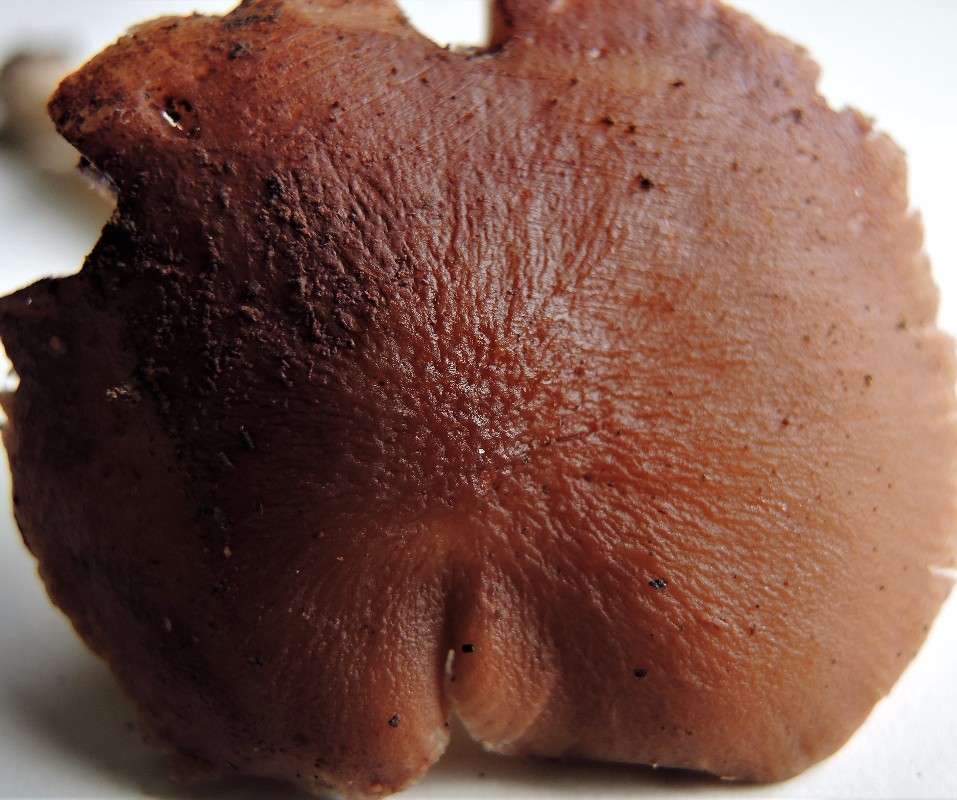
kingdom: Fungi
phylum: Basidiomycota
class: Agaricomycetes
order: Agaricales
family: Pluteaceae
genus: Pluteus
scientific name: Pluteus phlebophorus
